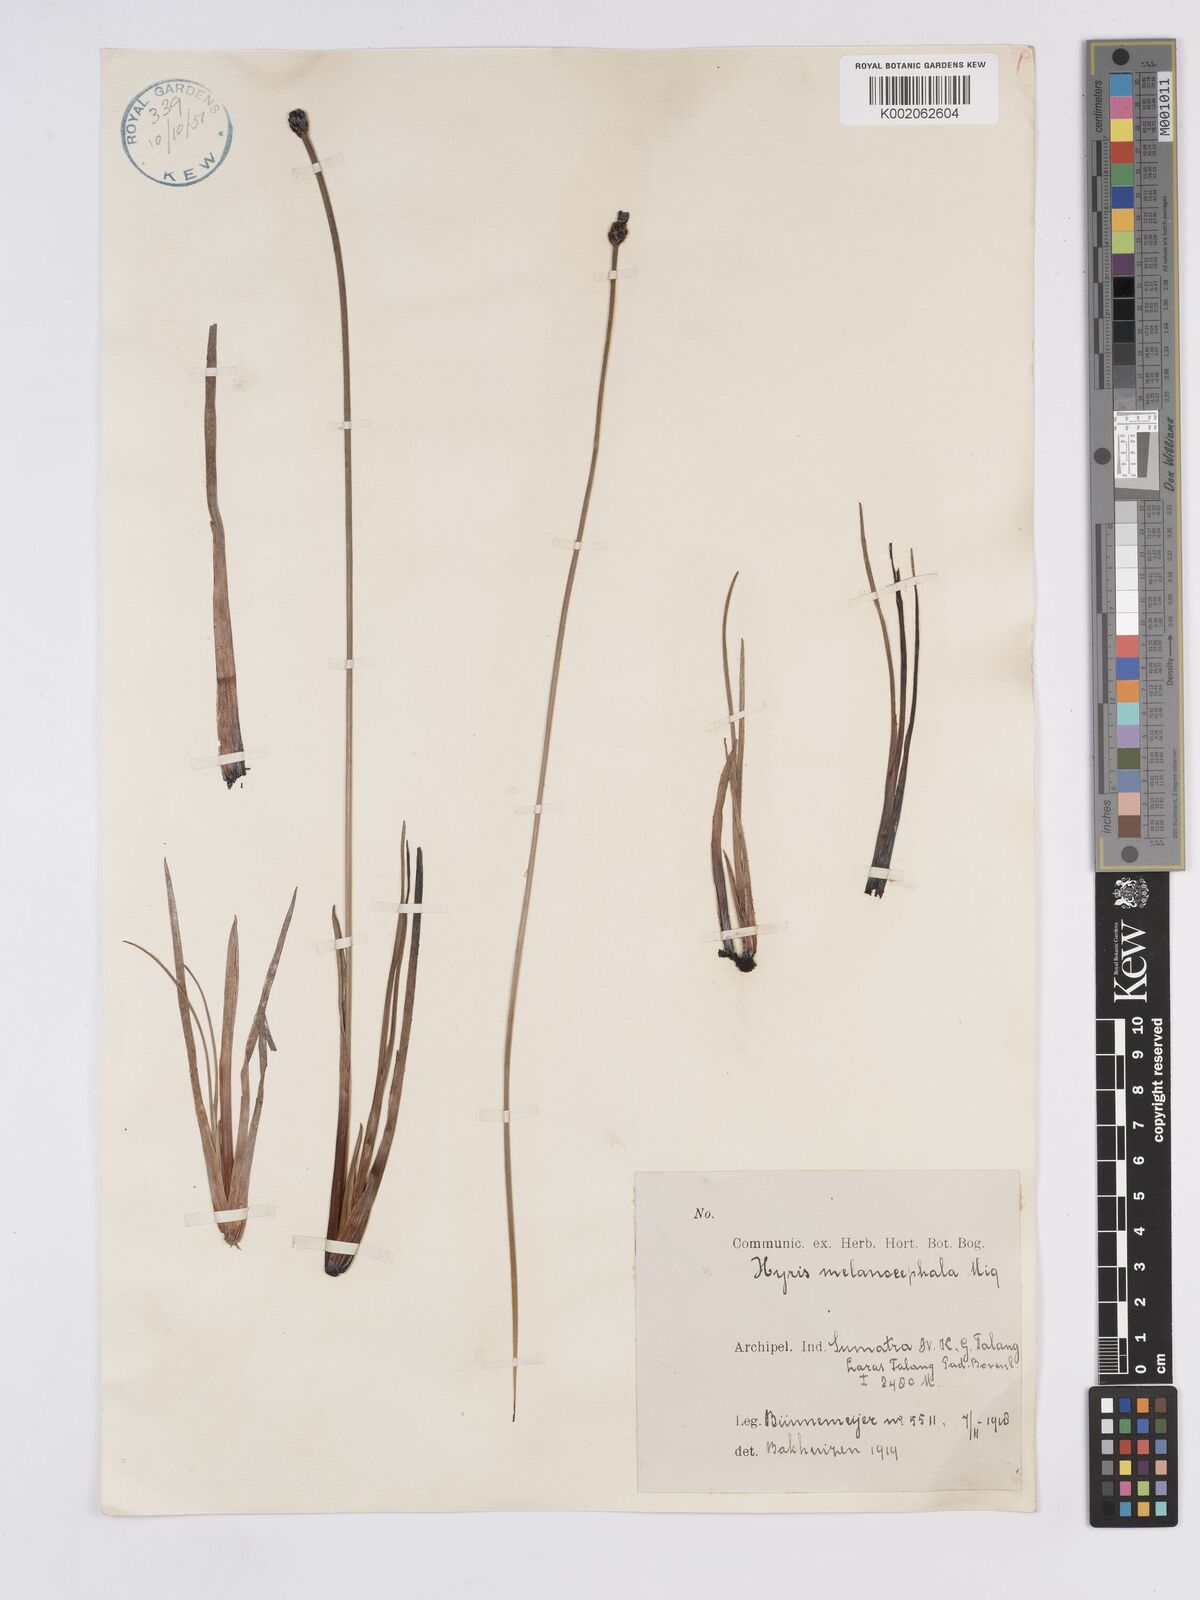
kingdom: Plantae
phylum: Tracheophyta
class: Liliopsida
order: Poales
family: Xyridaceae
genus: Xyris
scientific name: Xyris capensis
